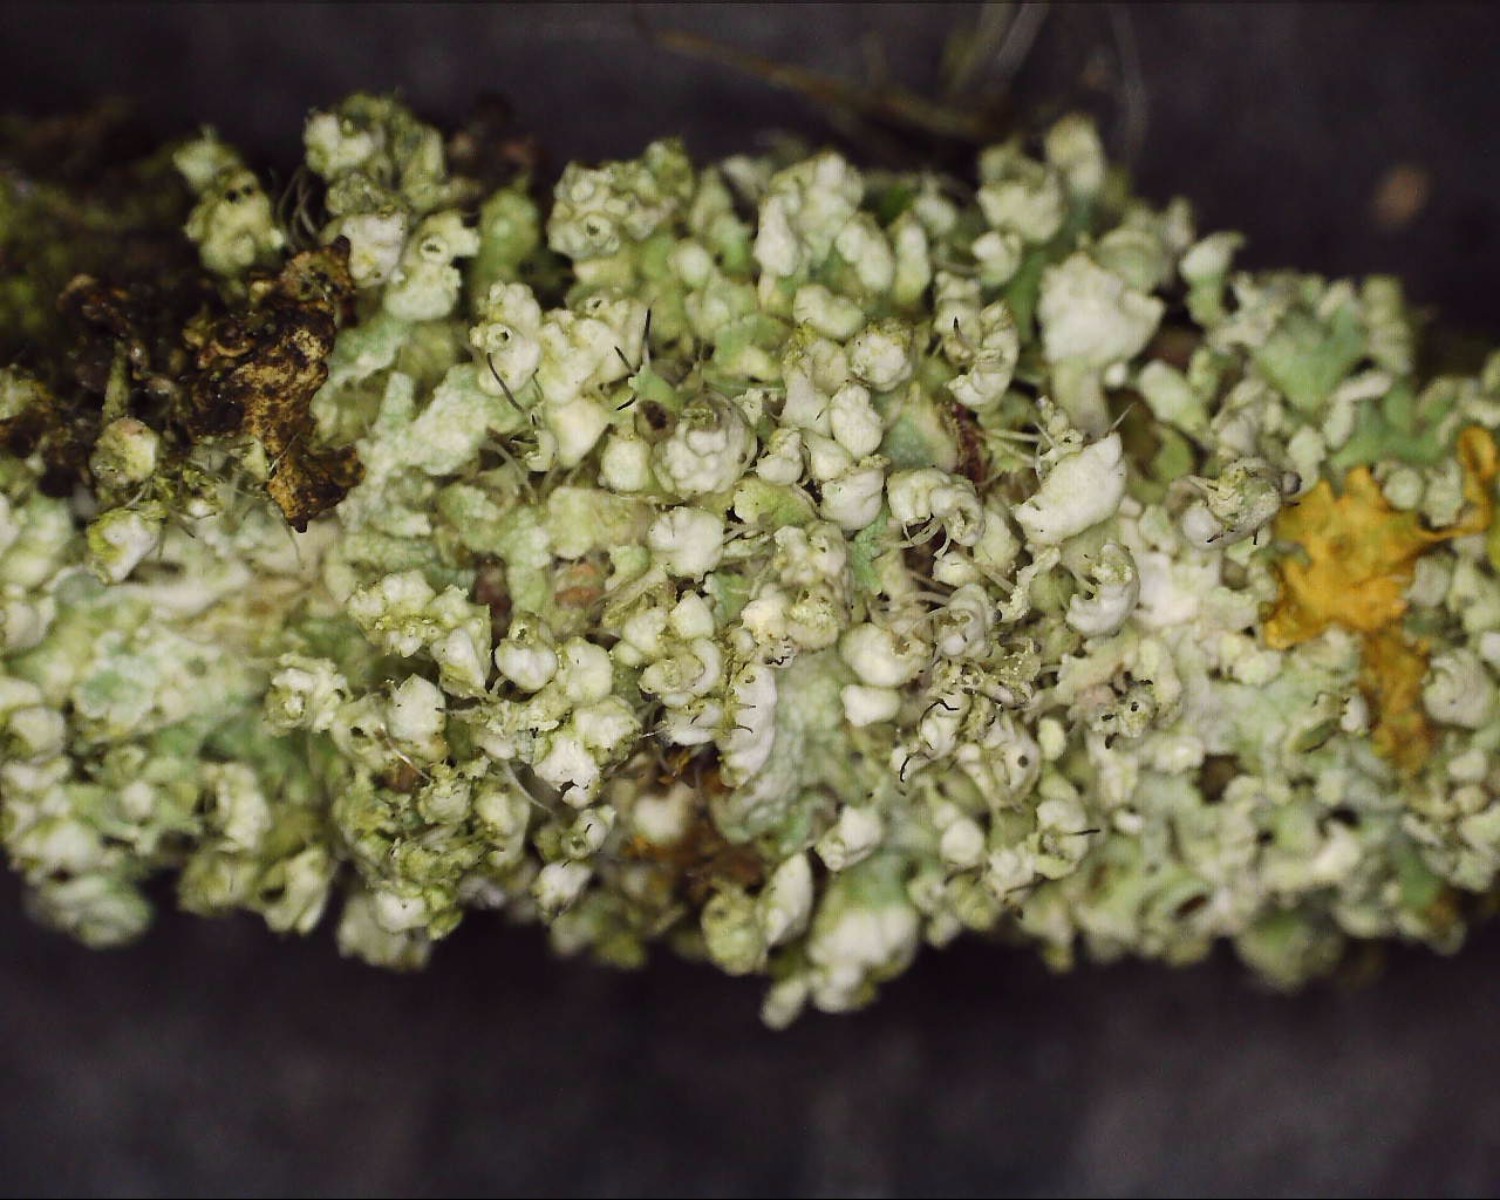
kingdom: Fungi
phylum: Ascomycota
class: Lecanoromycetes
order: Caliciales
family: Physciaceae
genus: Physcia
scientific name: Physcia adscendens
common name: hætte-rosetlav
